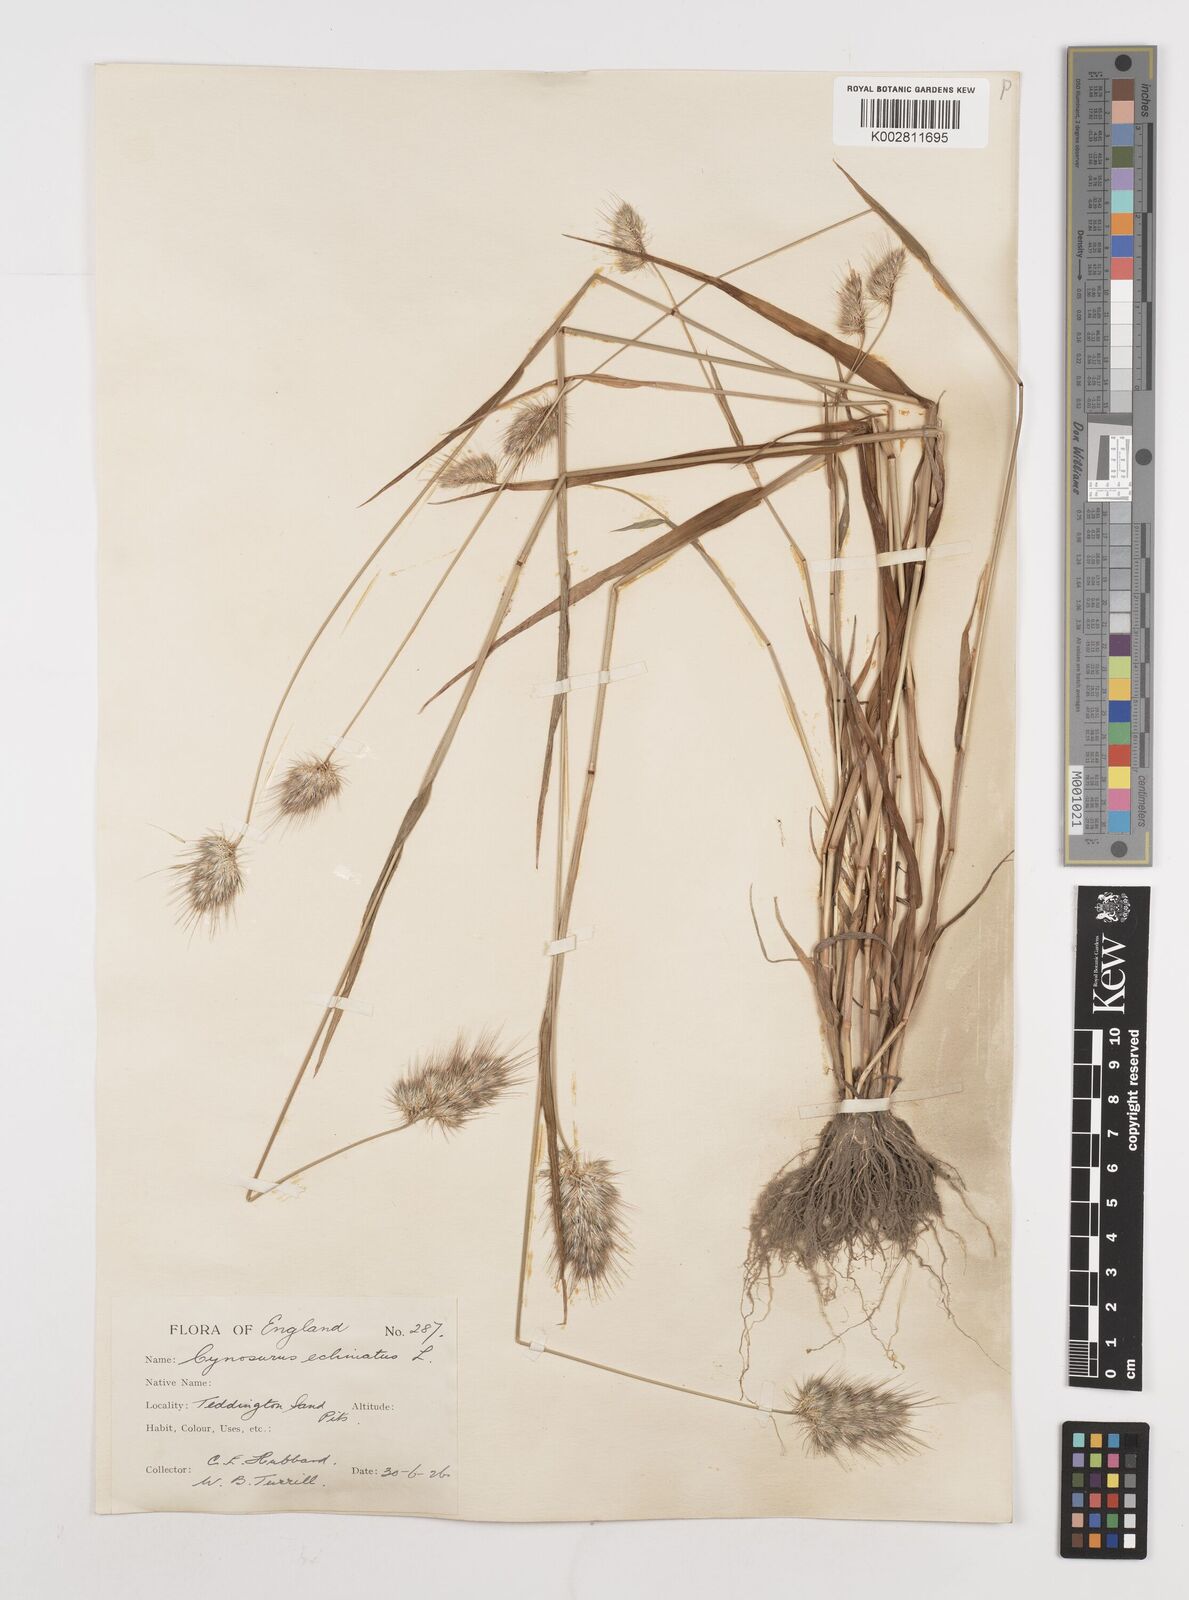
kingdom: Plantae
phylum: Tracheophyta
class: Liliopsida
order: Poales
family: Poaceae
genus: Cynosurus
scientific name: Cynosurus echinatus
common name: Rough dog's-tail
